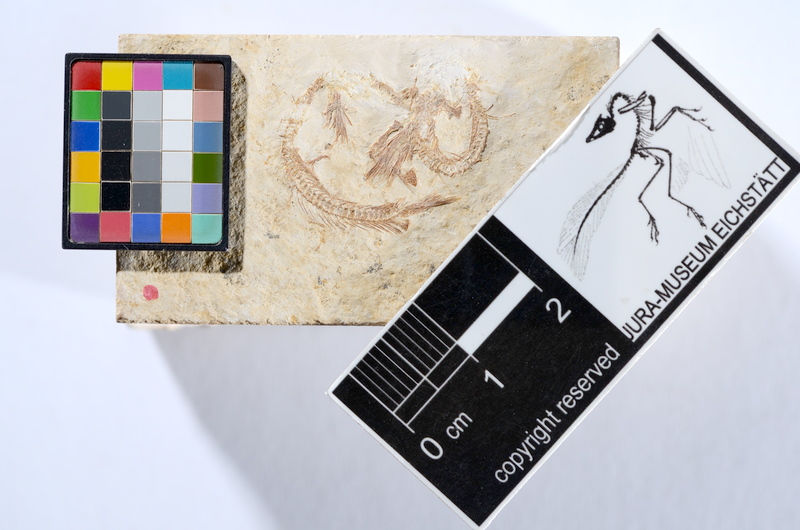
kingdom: Animalia
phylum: Chordata
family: Ascalaboidae
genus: Tharsis
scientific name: Tharsis dubius
